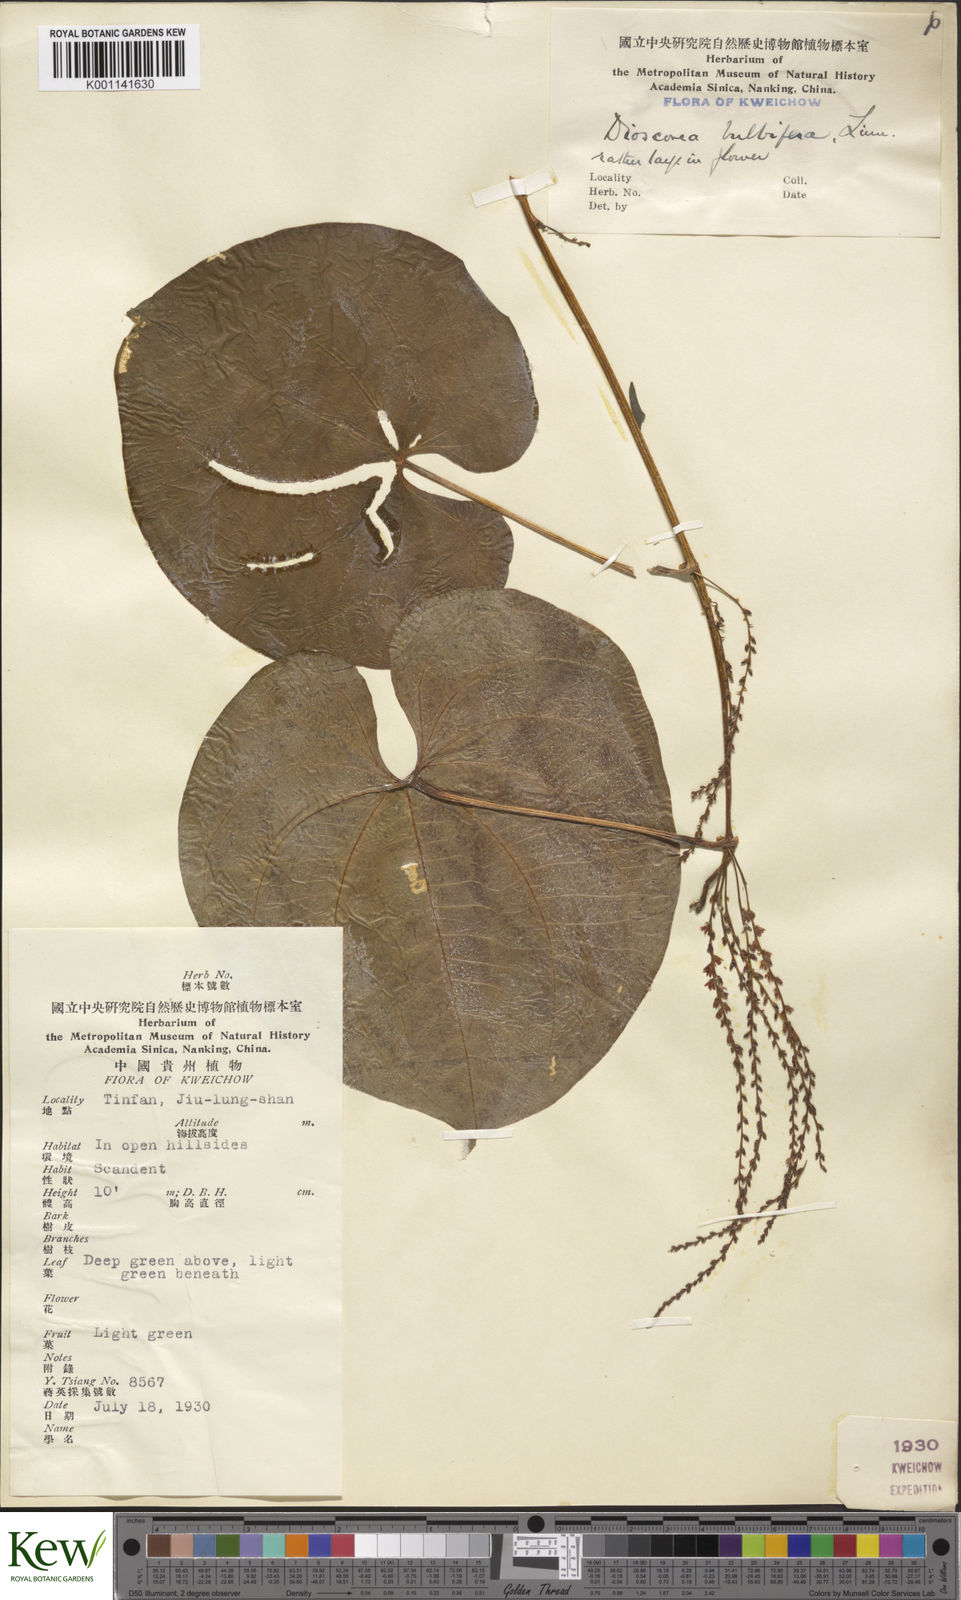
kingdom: Plantae
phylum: Tracheophyta
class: Liliopsida
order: Dioscoreales
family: Dioscoreaceae
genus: Dioscorea
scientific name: Dioscorea bulbifera
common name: Air yam
